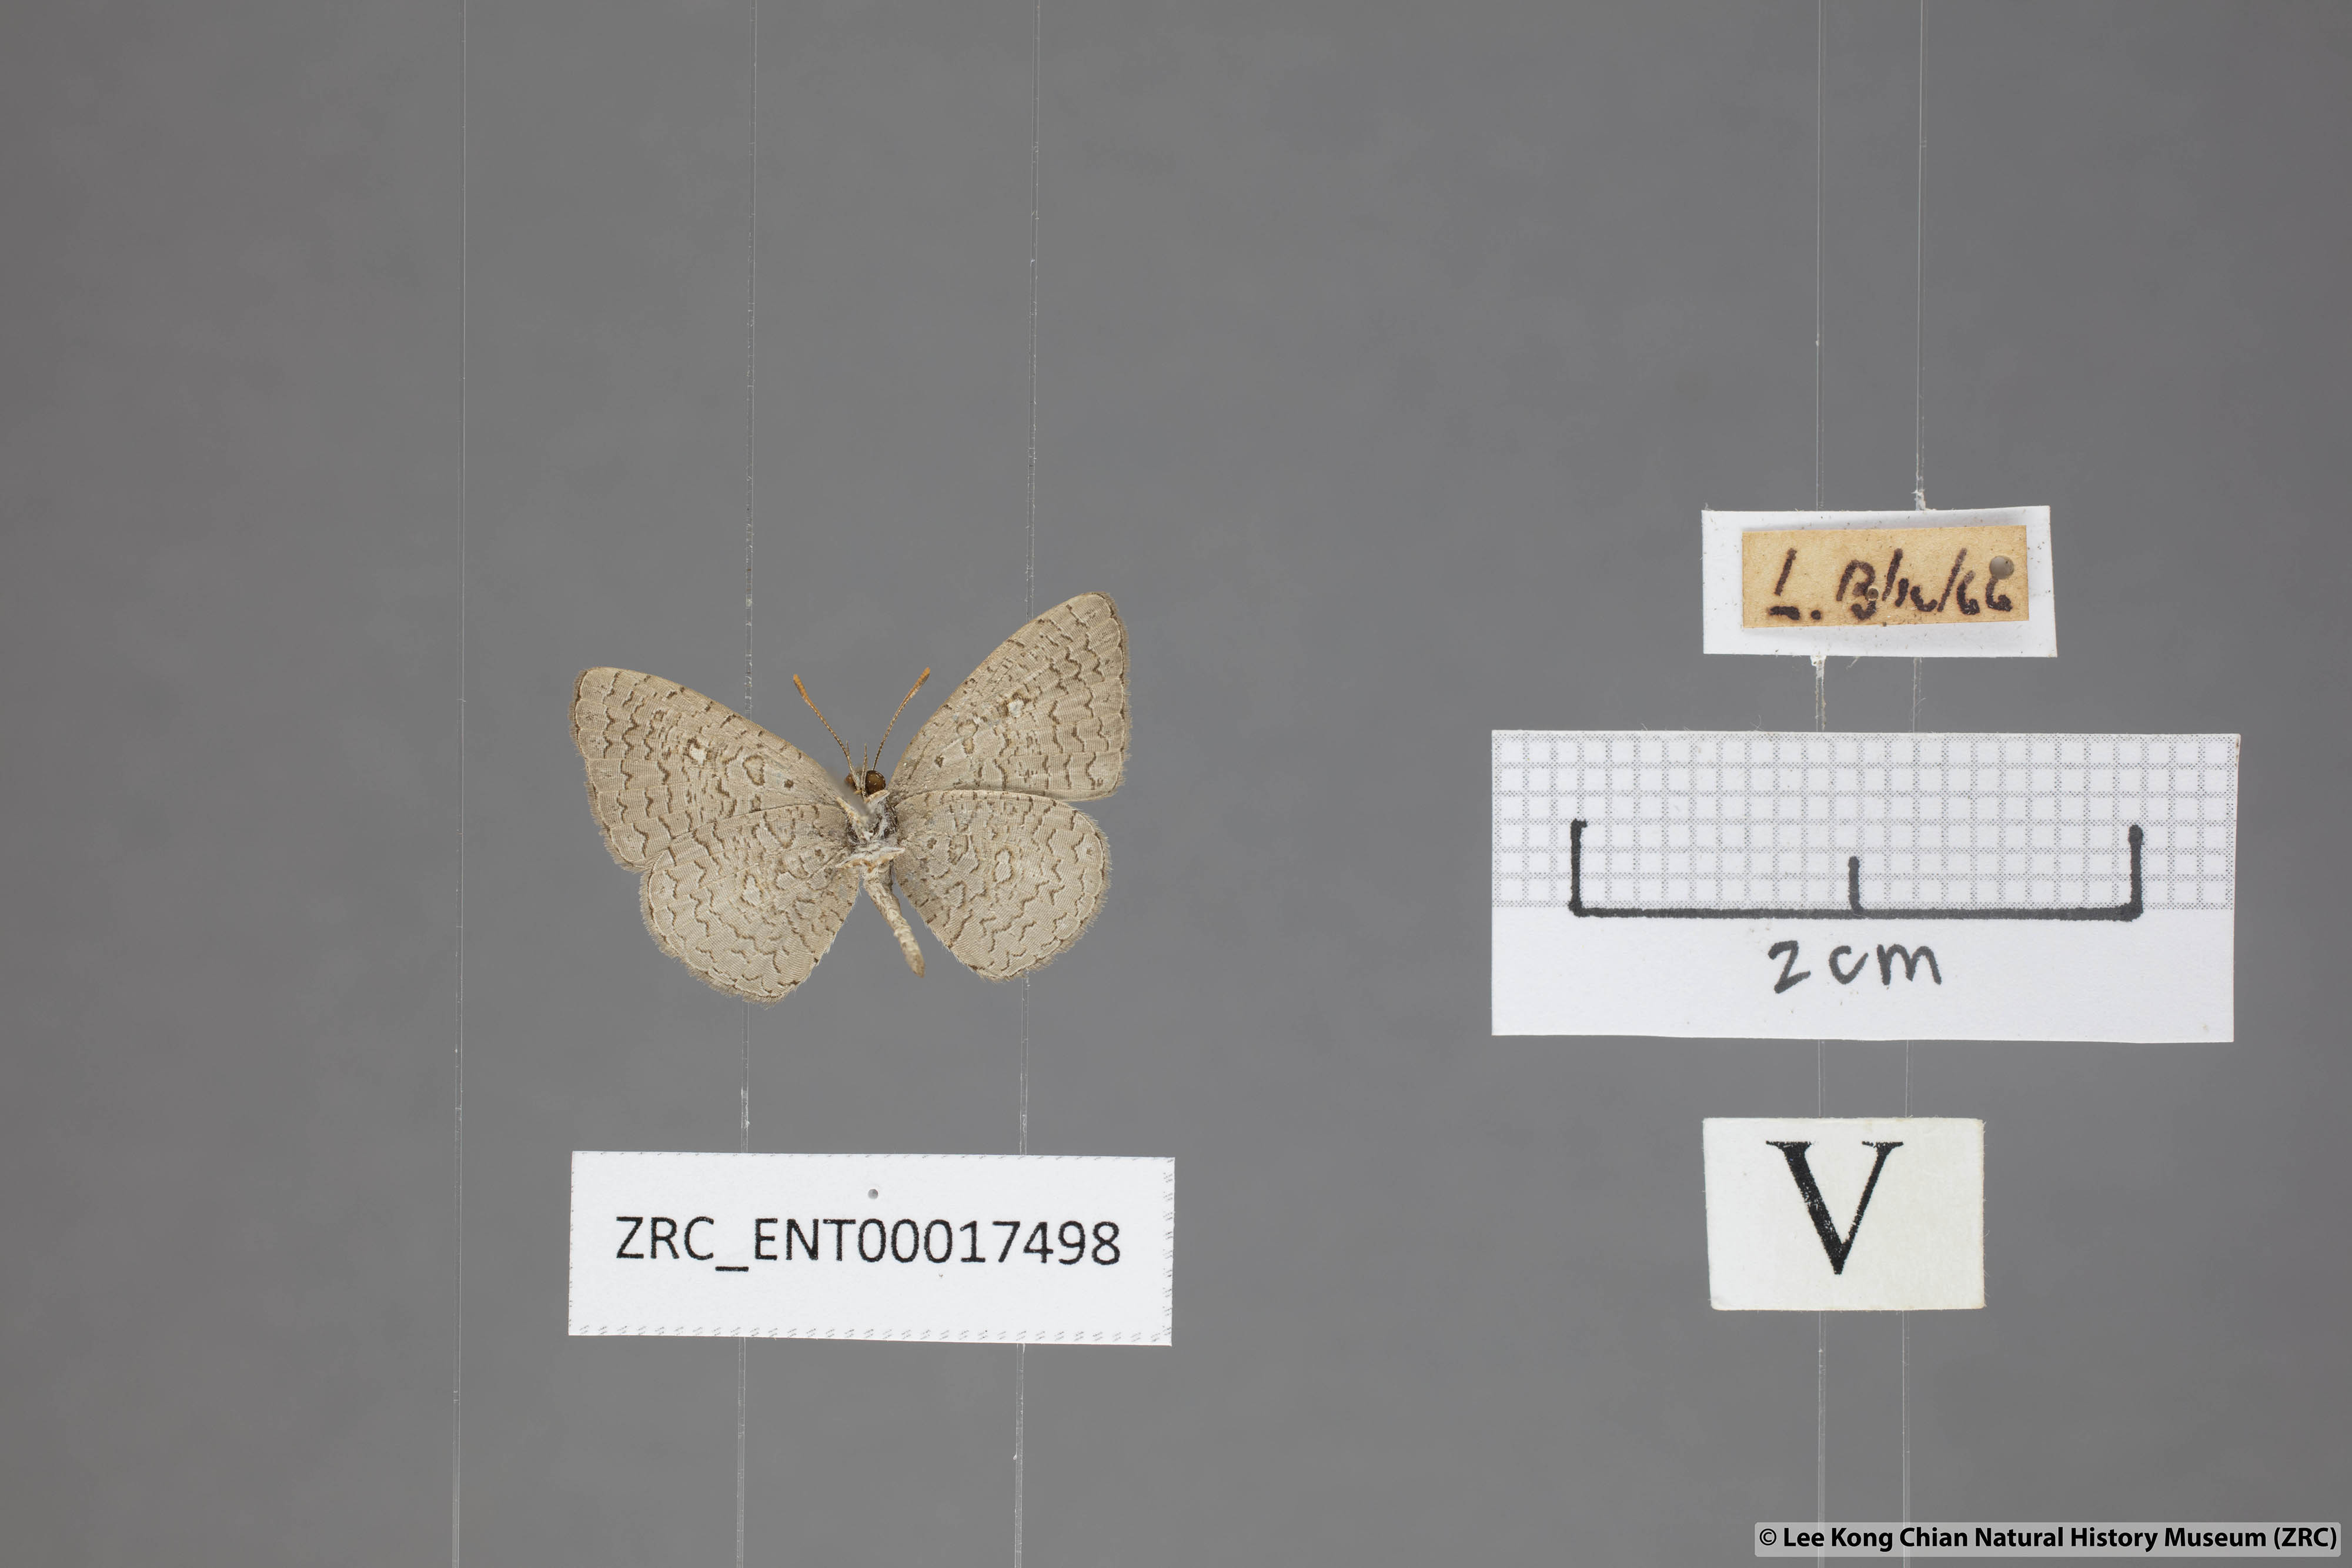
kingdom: Animalia
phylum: Arthropoda
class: Insecta
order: Lepidoptera
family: Lycaenidae
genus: Spalgis
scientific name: Spalgis epeus
